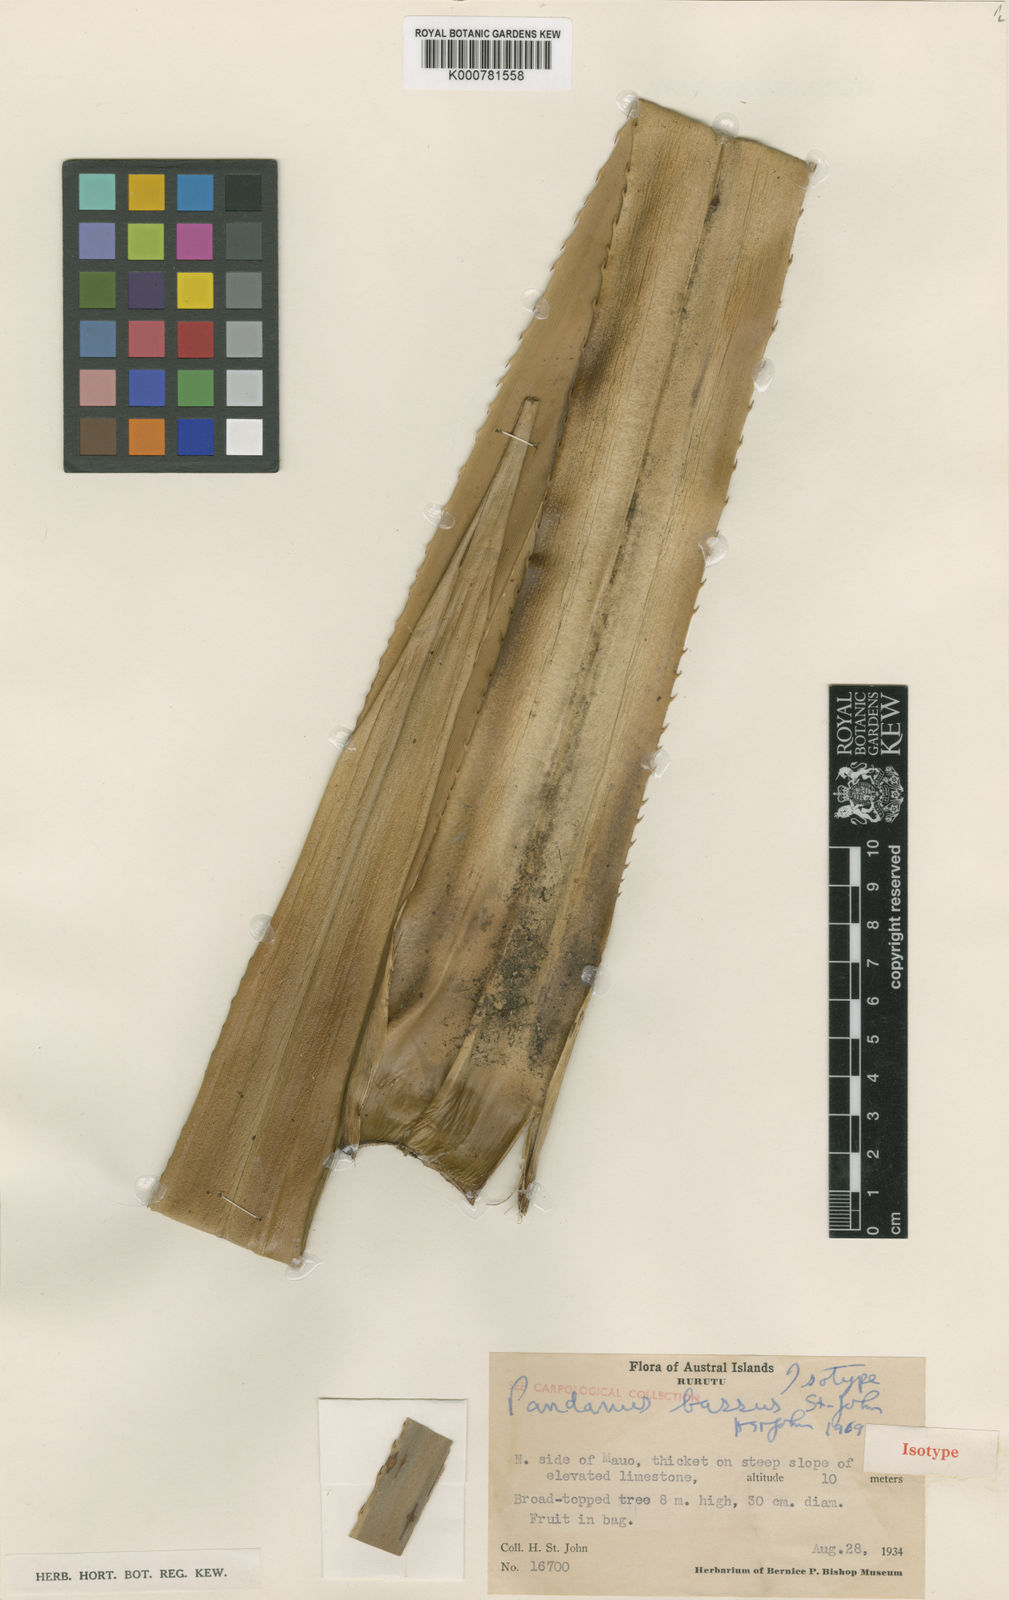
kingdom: Plantae
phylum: Tracheophyta
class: Liliopsida
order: Pandanales
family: Pandanaceae
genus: Pandanus
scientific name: Pandanus tectorius
